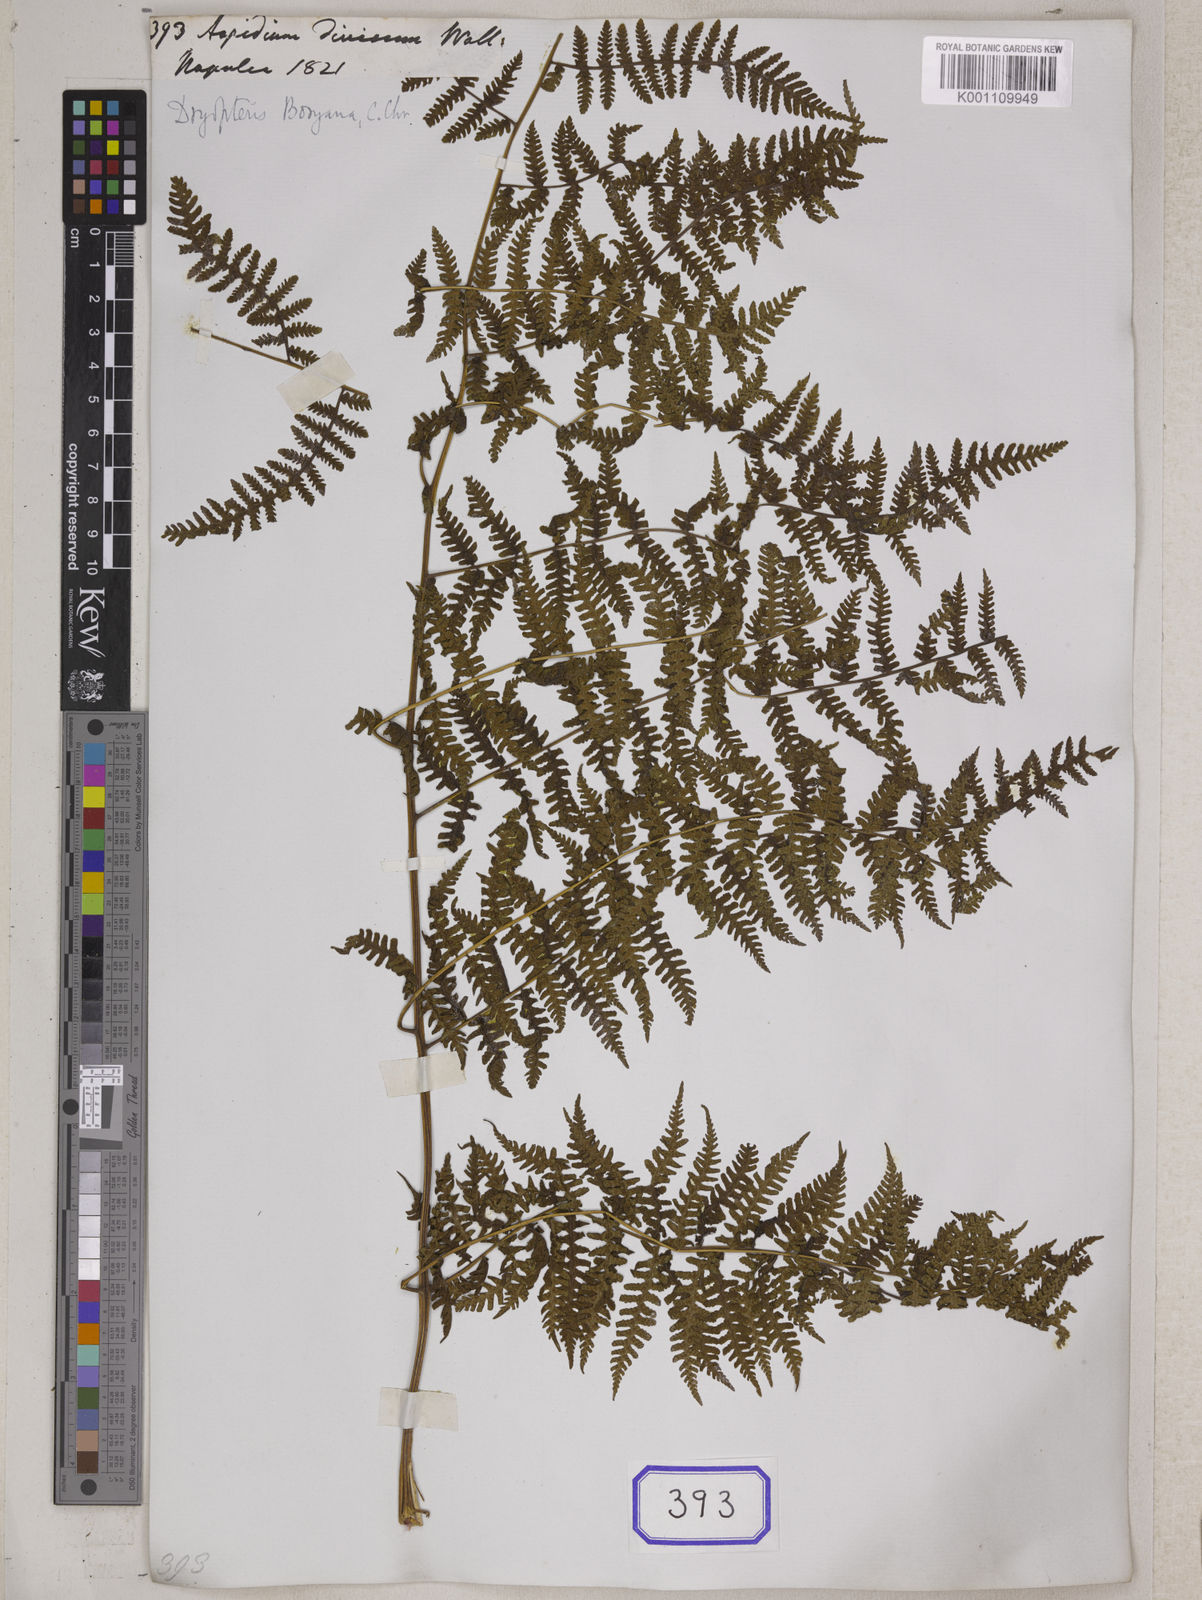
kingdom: Plantae
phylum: Tracheophyta
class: Polypodiopsida
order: Polypodiales
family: Athyriaceae
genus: Deparia
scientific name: Deparia boryana
